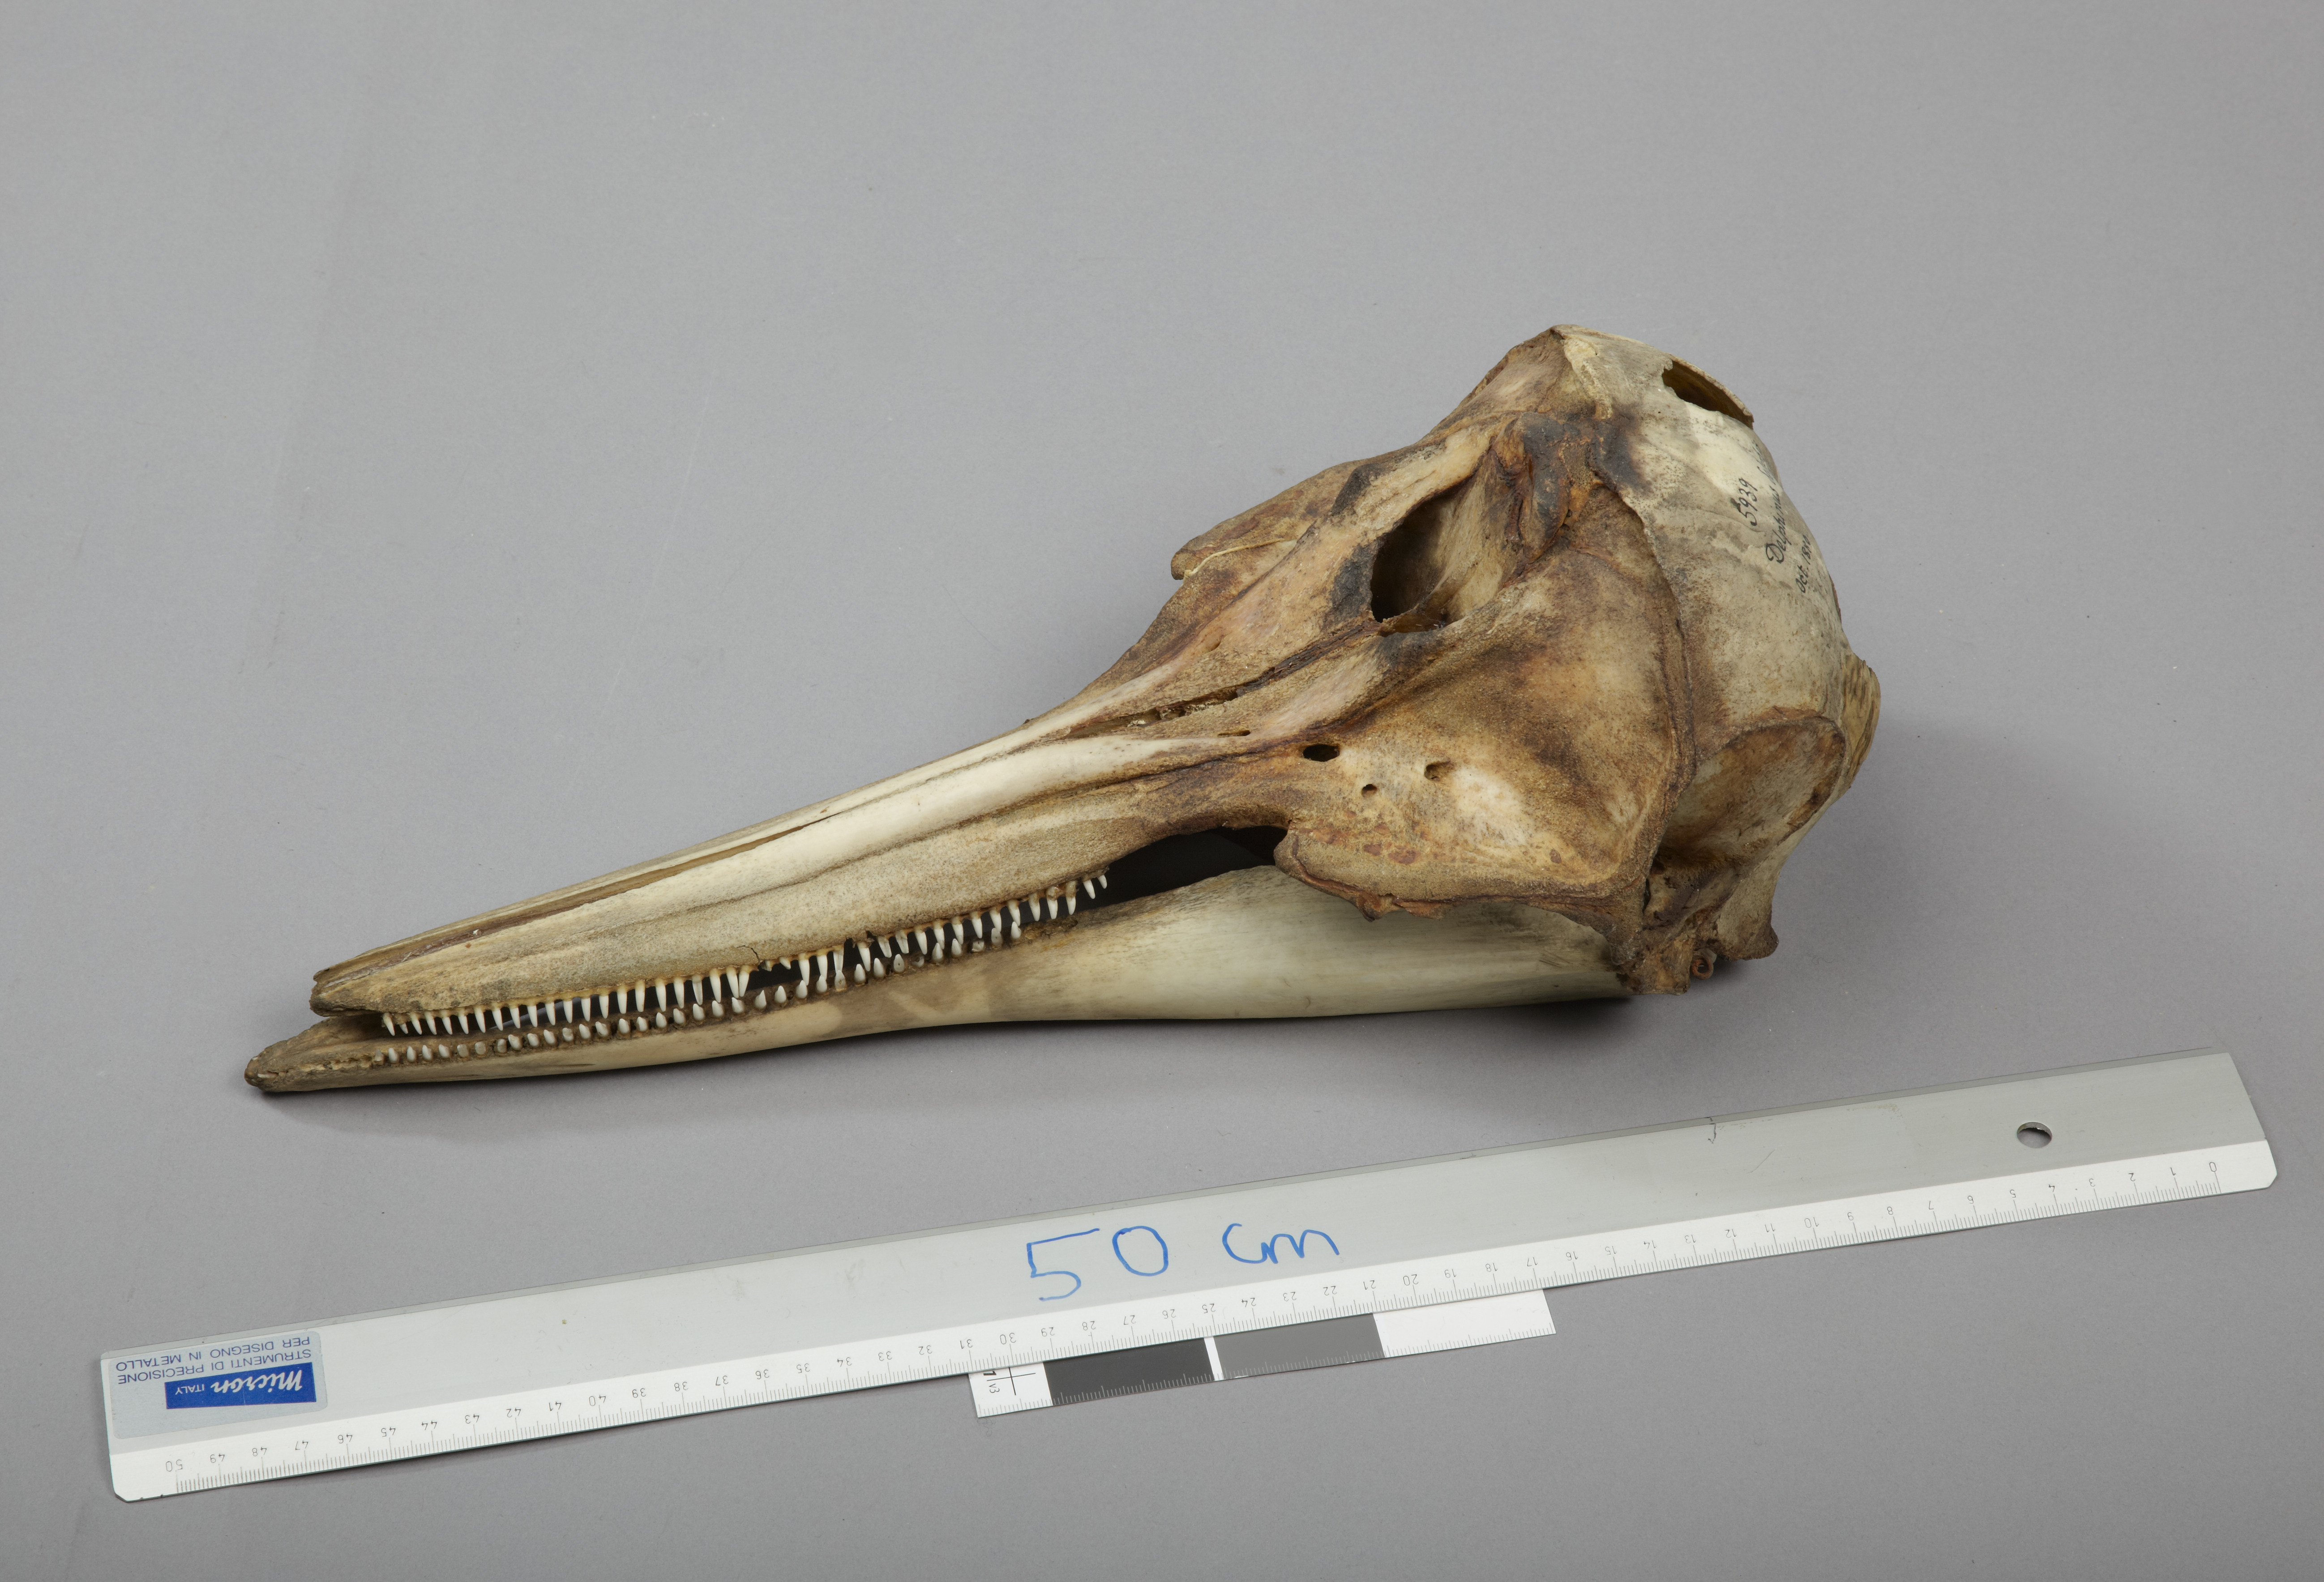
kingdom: Animalia
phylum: Chordata
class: Mammalia
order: Cetacea
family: Delphinidae
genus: Delphinus
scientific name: Delphinus delphis
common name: Common dolphin
